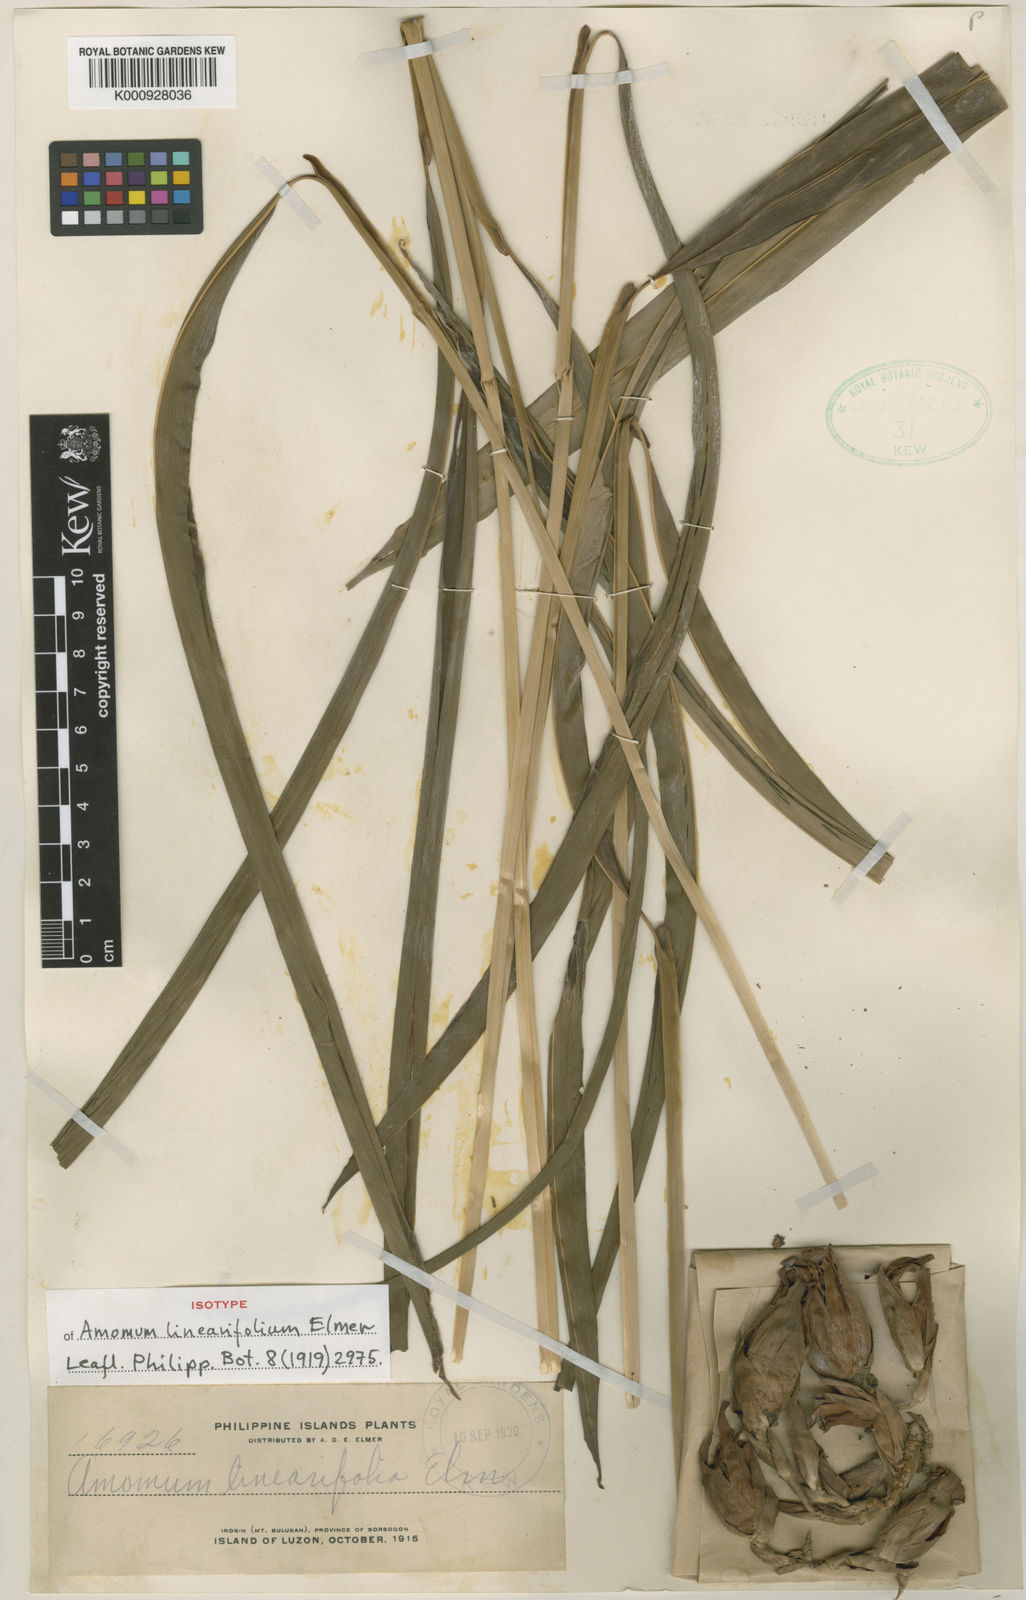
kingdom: Plantae
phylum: Tracheophyta
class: Liliopsida
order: Zingiberales
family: Zingiberaceae
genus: Etlingera
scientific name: Etlingera linearifolia
